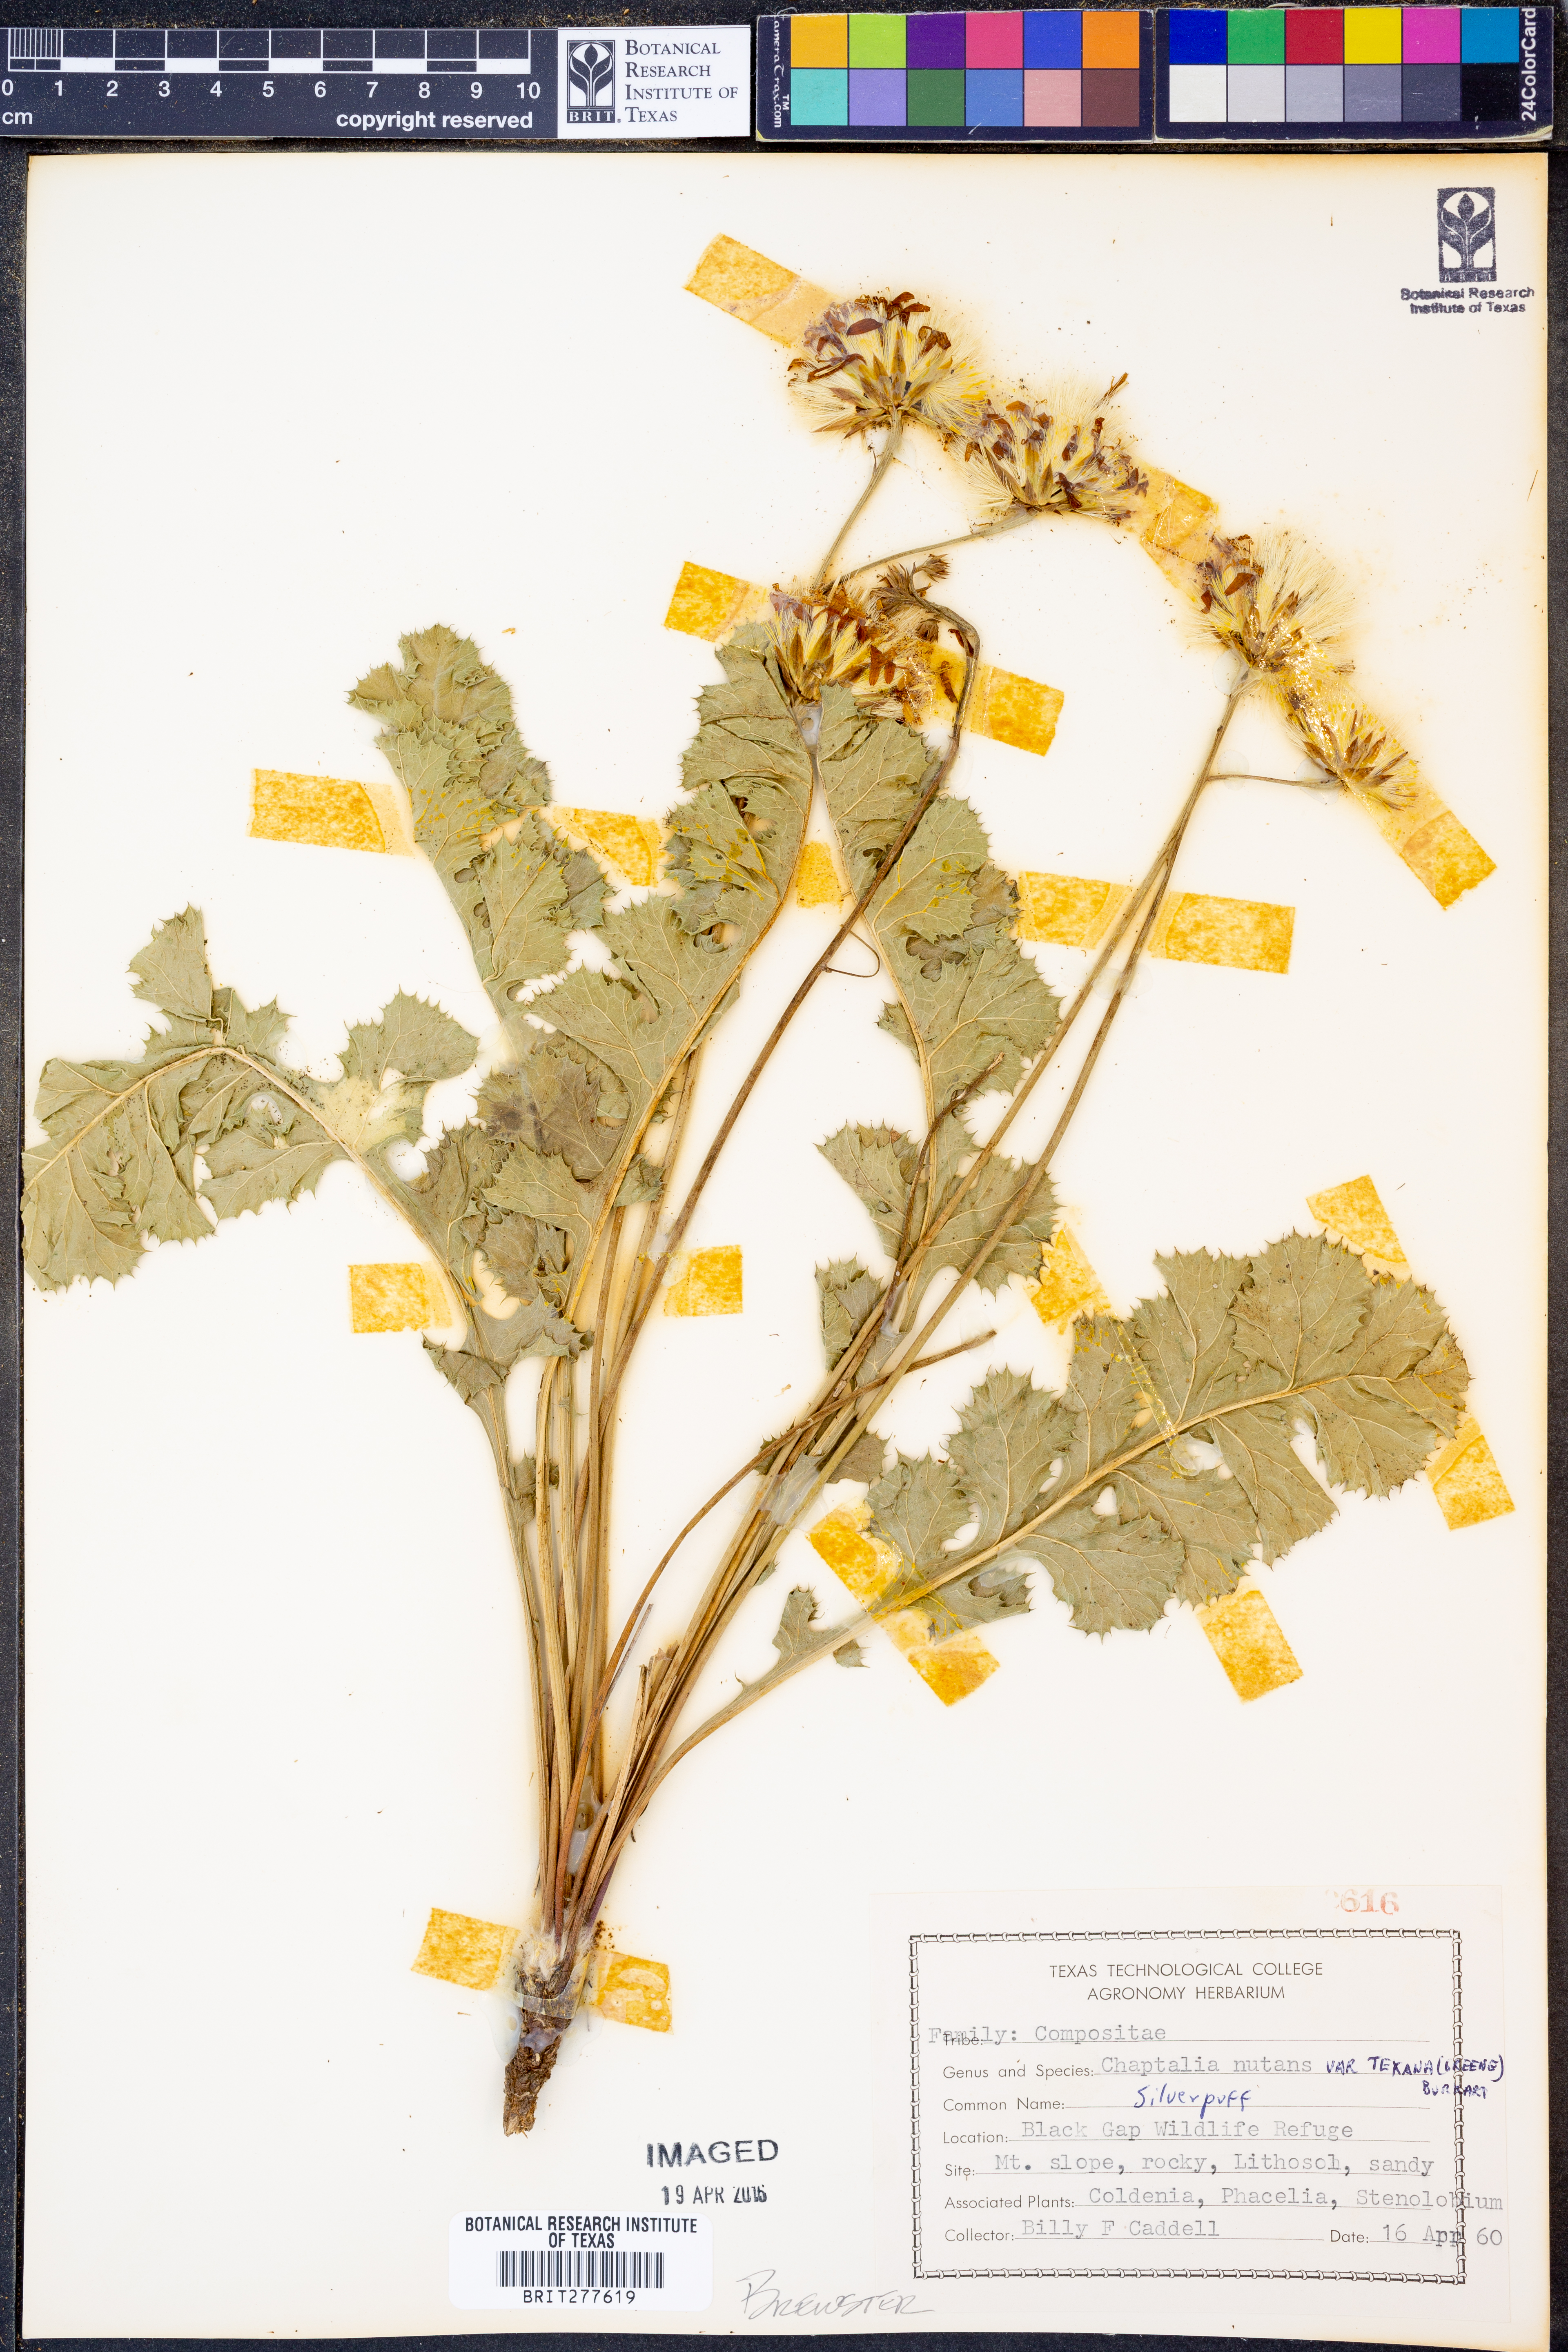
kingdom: Plantae
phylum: Tracheophyta
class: Magnoliopsida
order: Asterales
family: Asteraceae
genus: Chaptalia
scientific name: Chaptalia texana
